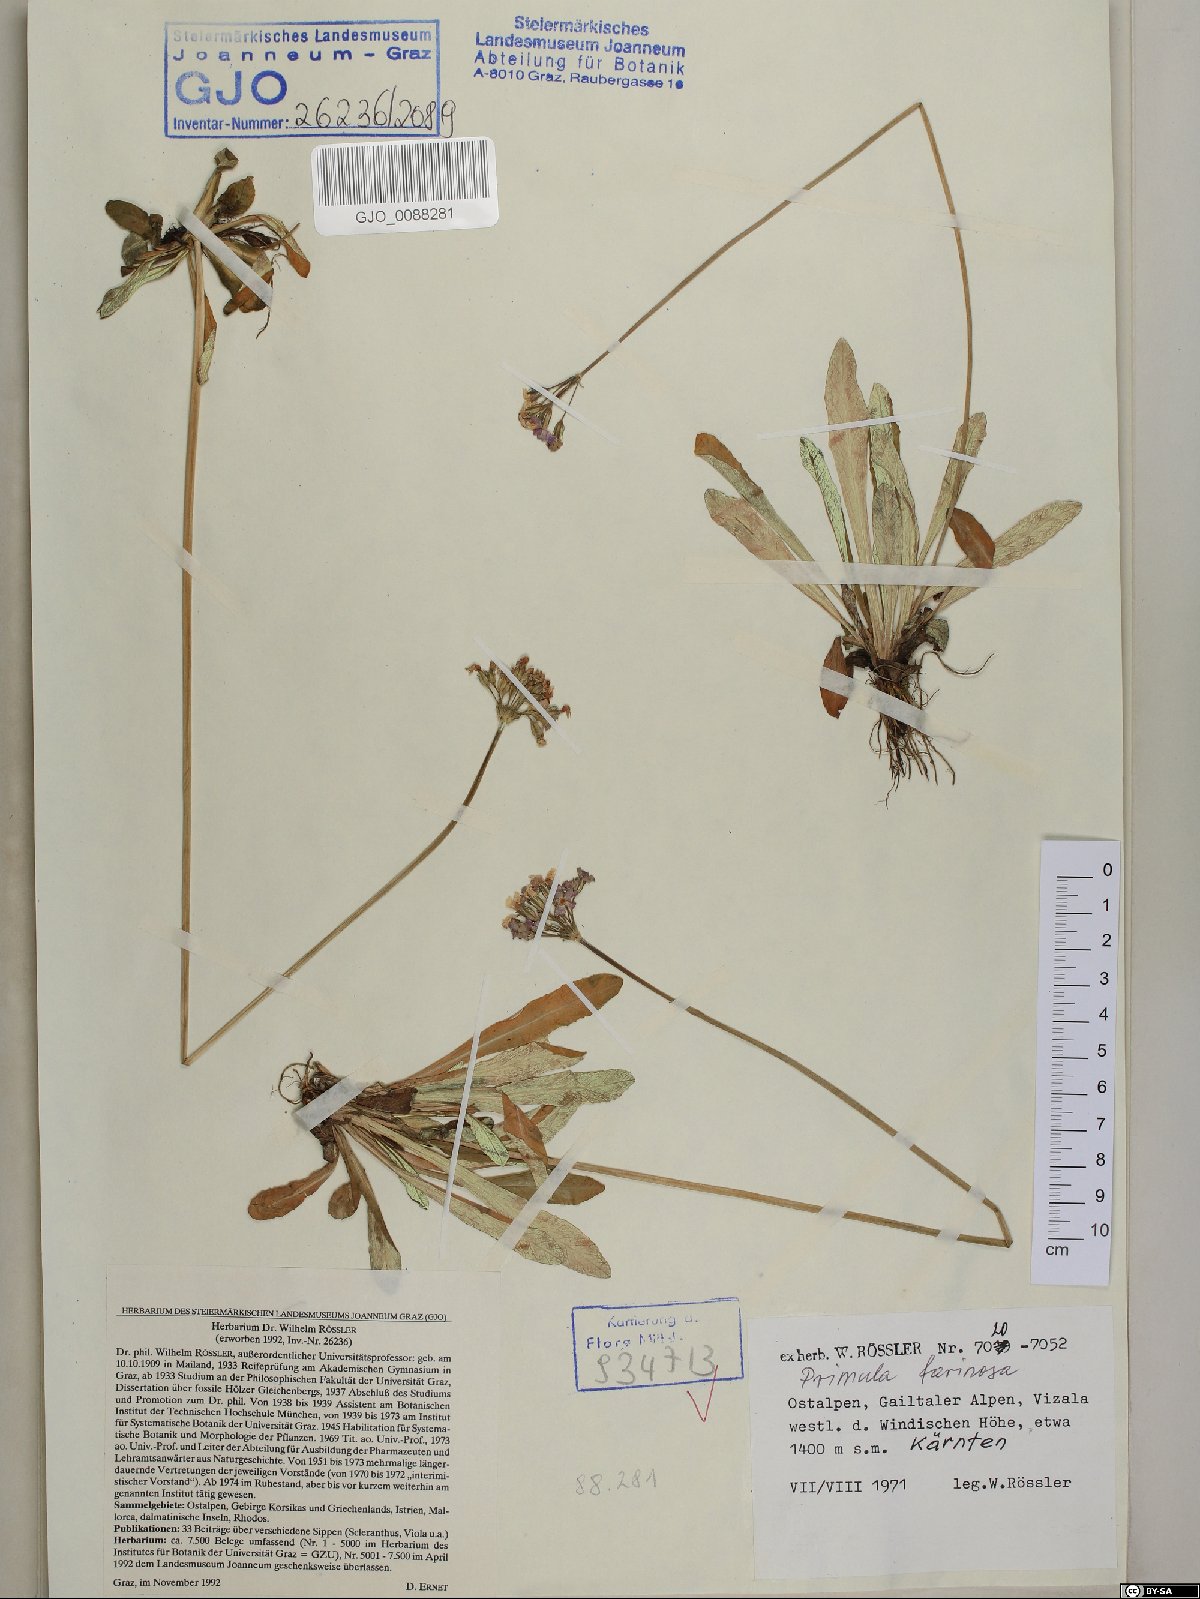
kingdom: Plantae
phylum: Tracheophyta
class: Magnoliopsida
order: Ericales
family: Primulaceae
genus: Primula
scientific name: Primula farinosa
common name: Bird's-eye primrose
